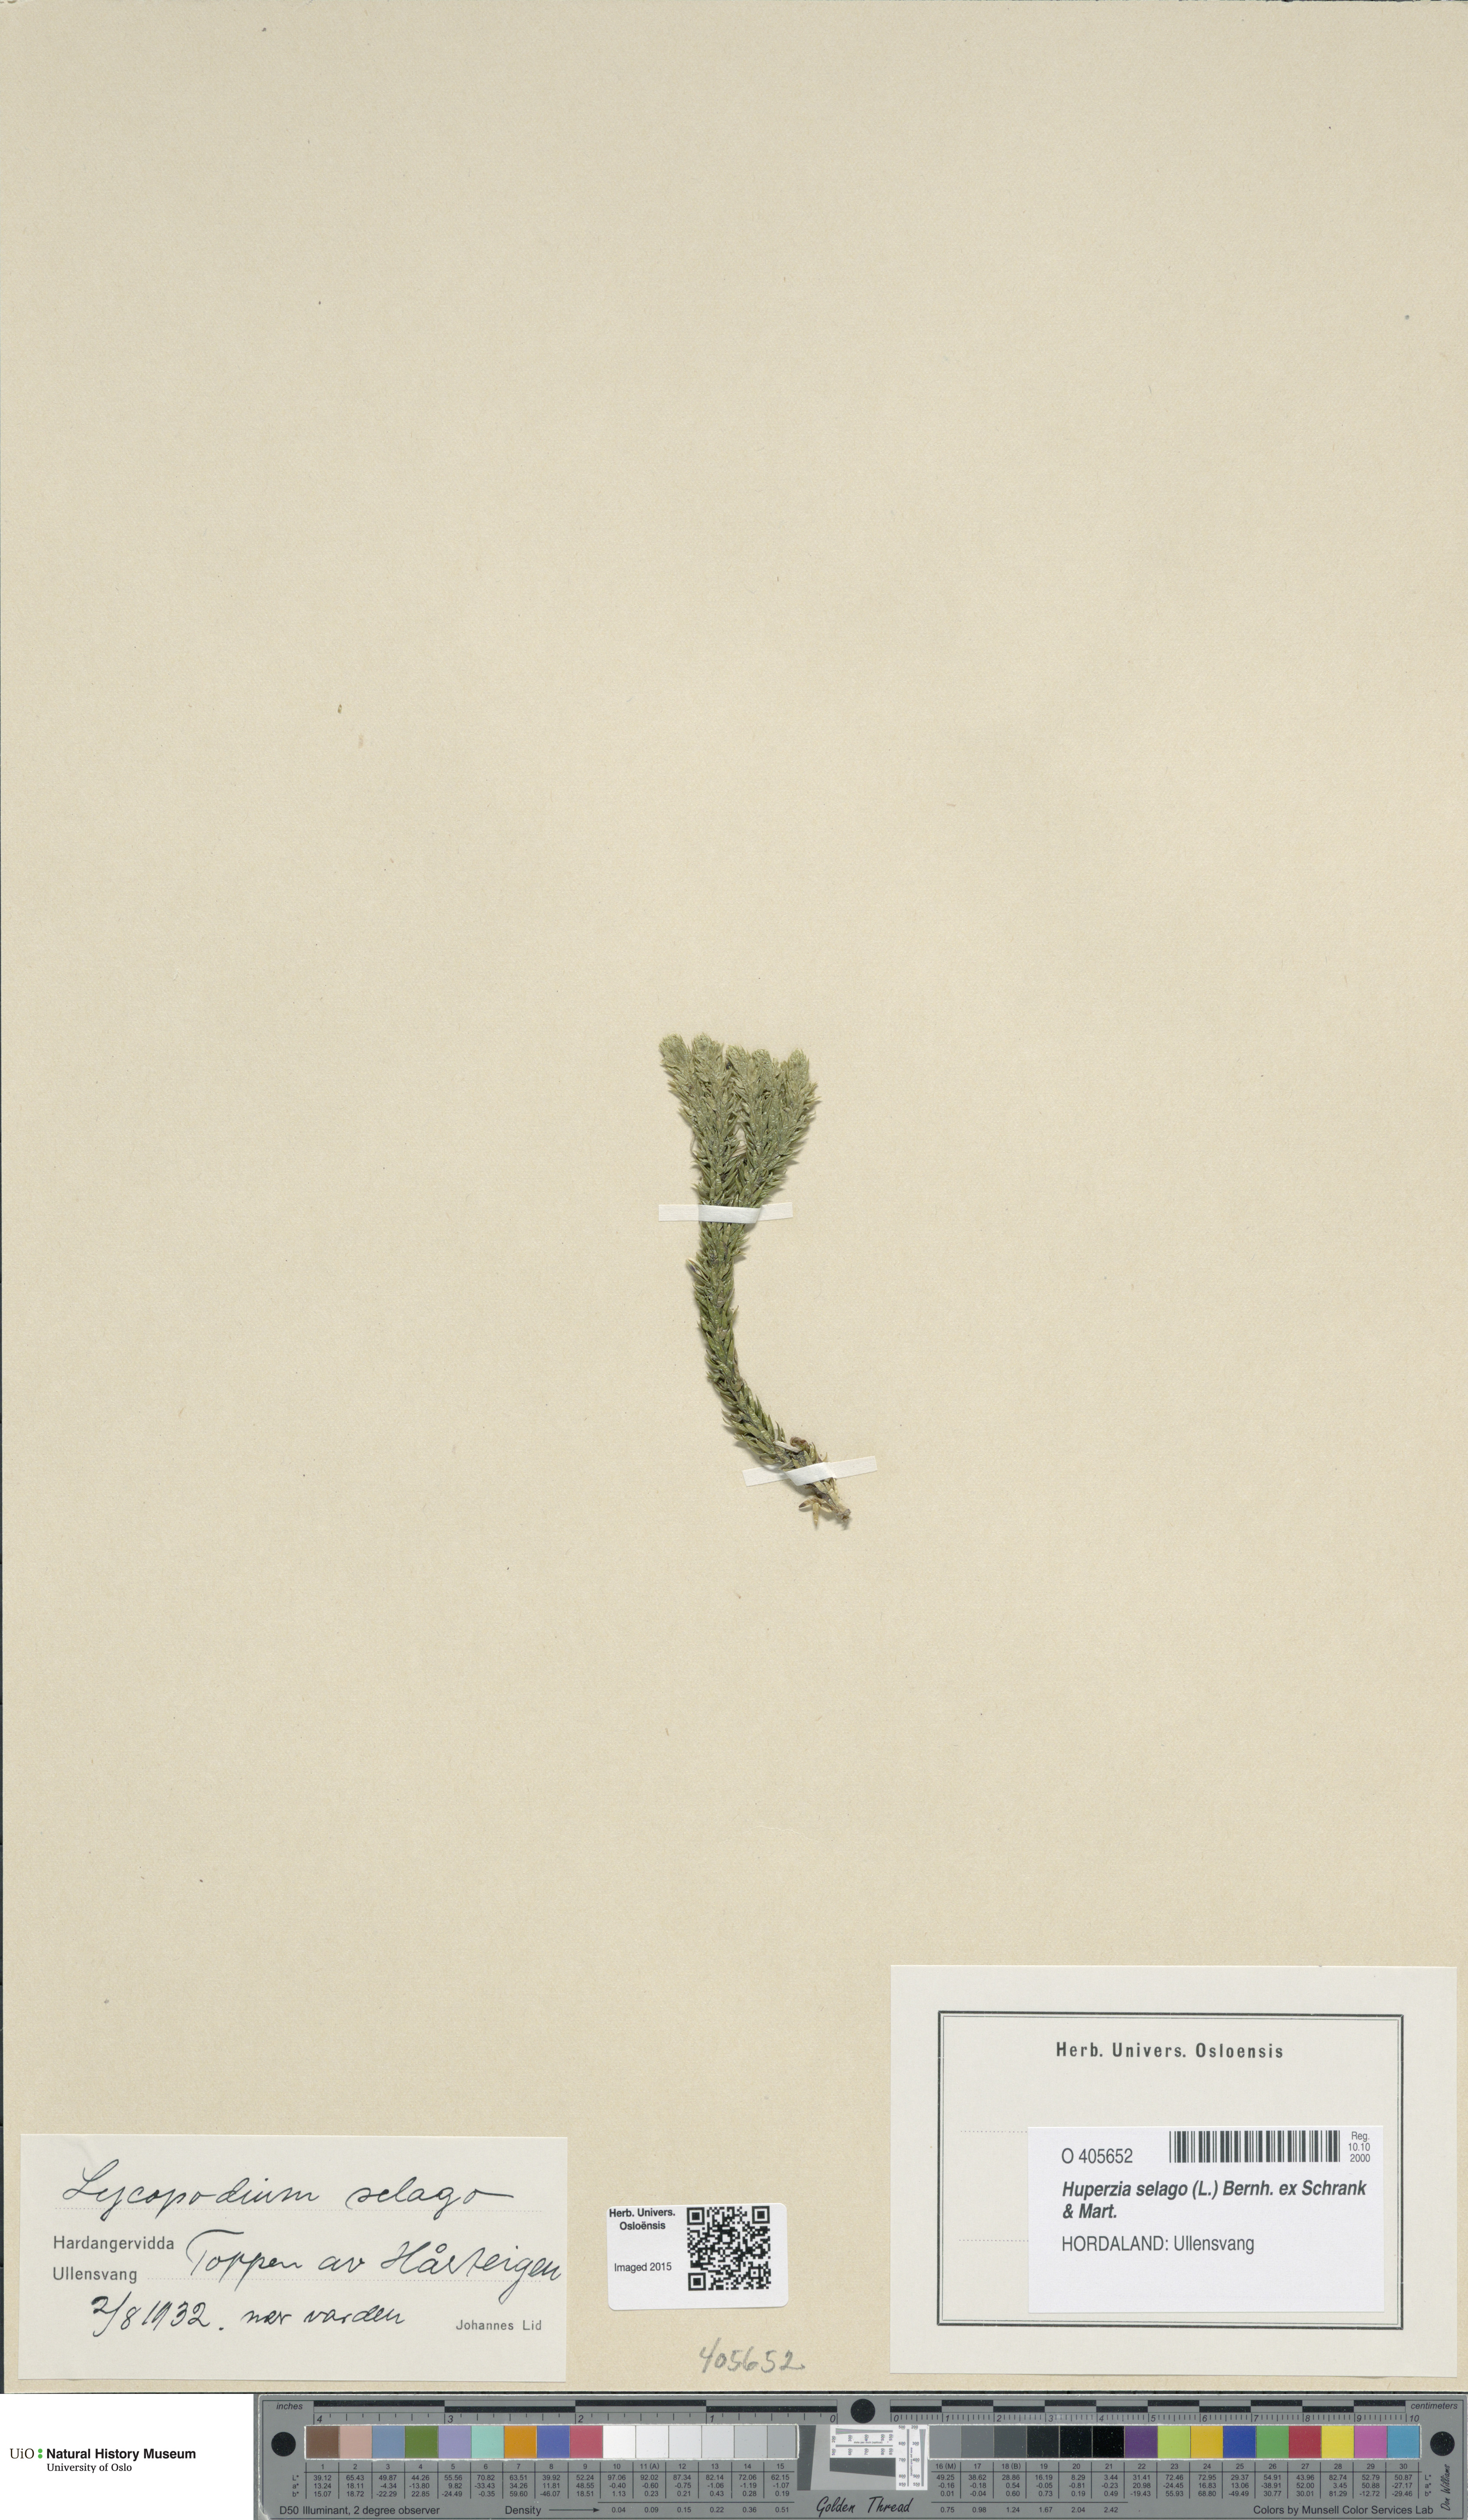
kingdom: Plantae
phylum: Tracheophyta
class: Lycopodiopsida
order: Lycopodiales
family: Lycopodiaceae
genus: Huperzia
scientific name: Huperzia selago
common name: Northern firmoss
